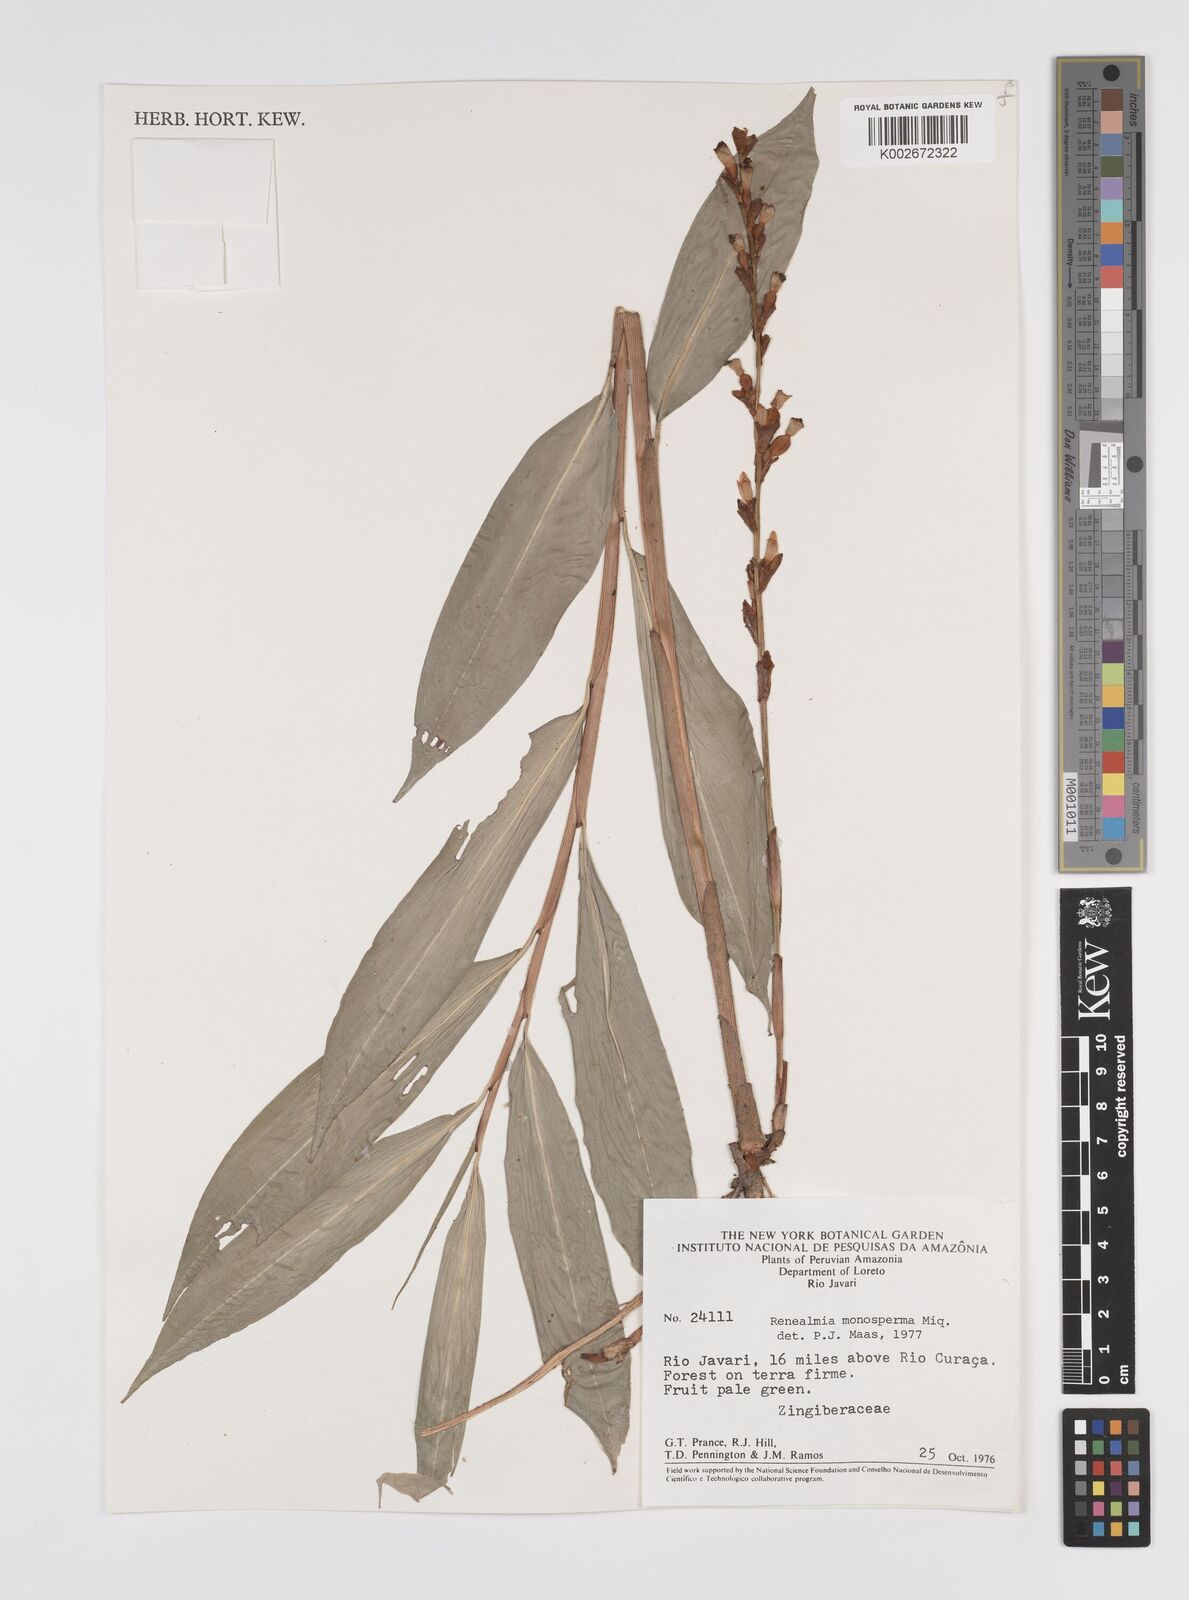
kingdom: Plantae
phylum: Tracheophyta
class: Liliopsida
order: Zingiberales
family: Zingiberaceae
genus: Renealmia
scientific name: Renealmia monosperma
